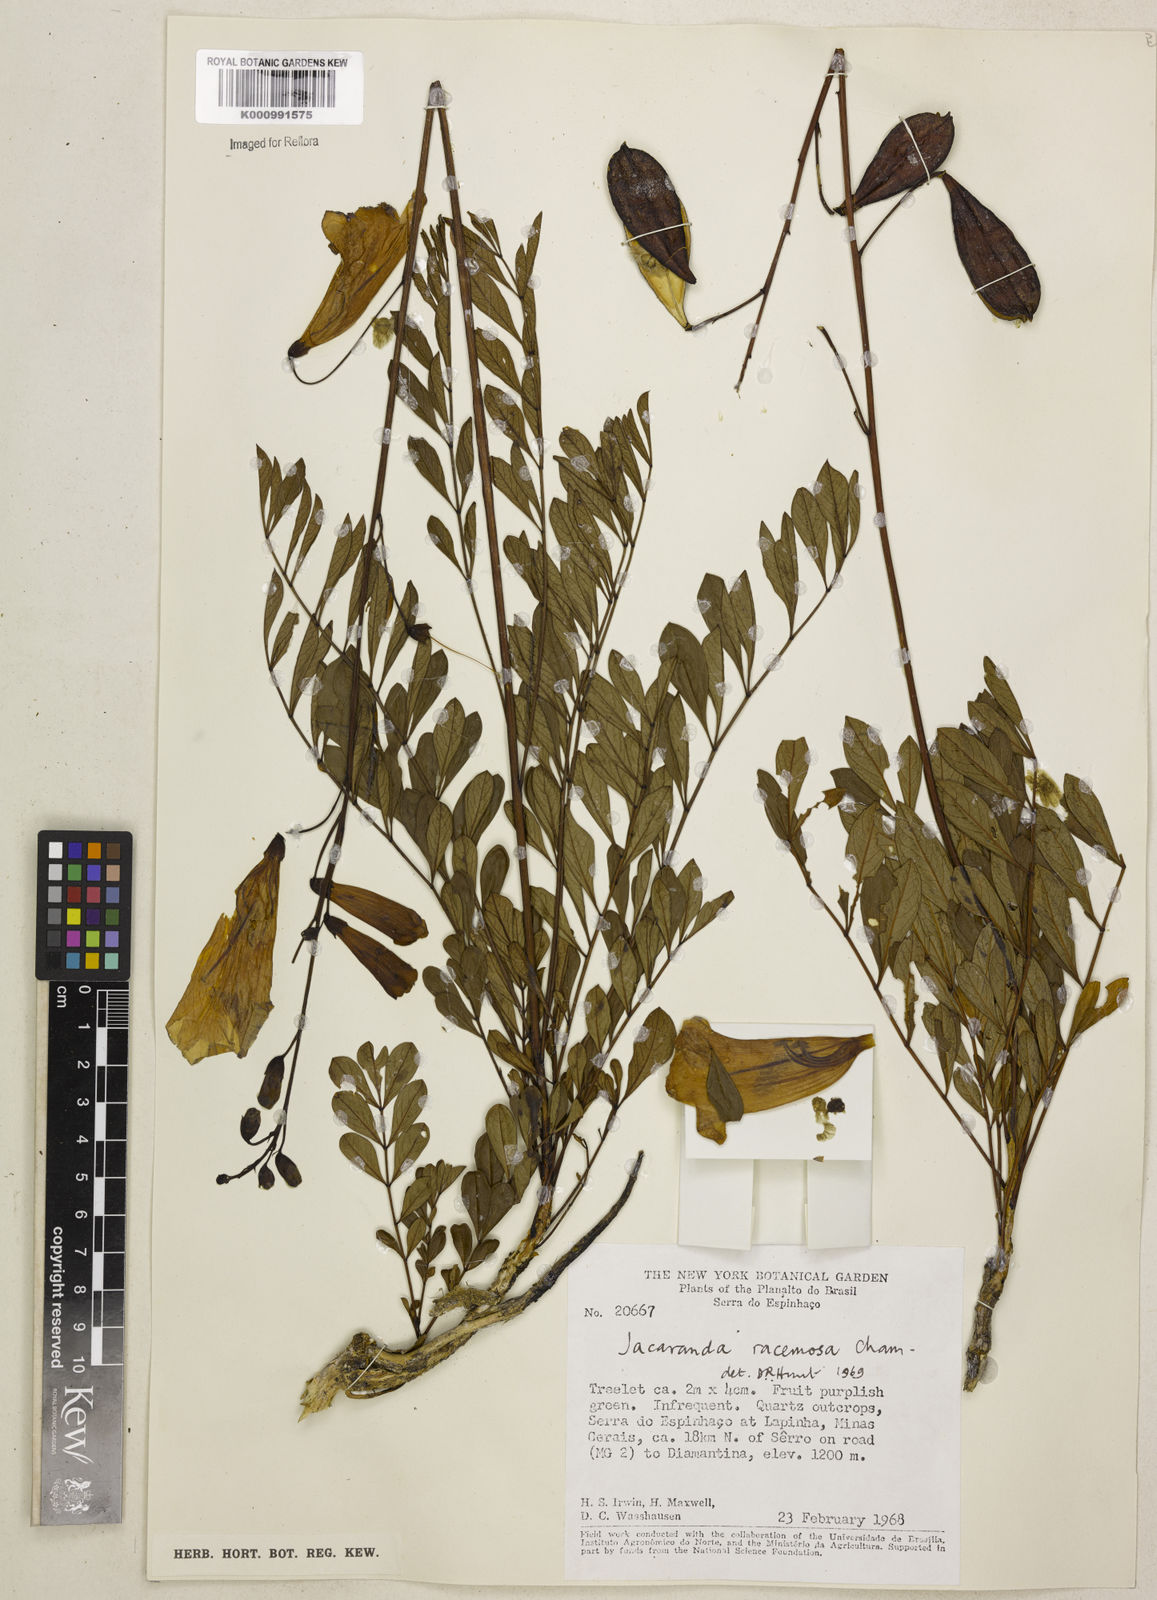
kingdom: Plantae
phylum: Tracheophyta
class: Magnoliopsida
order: Lamiales
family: Bignoniaceae
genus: Jacaranda
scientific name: Jacaranda racemosa
